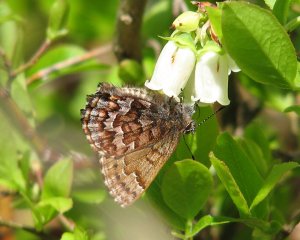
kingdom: Animalia
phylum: Arthropoda
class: Insecta
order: Lepidoptera
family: Lycaenidae
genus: Incisalia
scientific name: Incisalia niphon
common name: Eastern Pine Elfin
